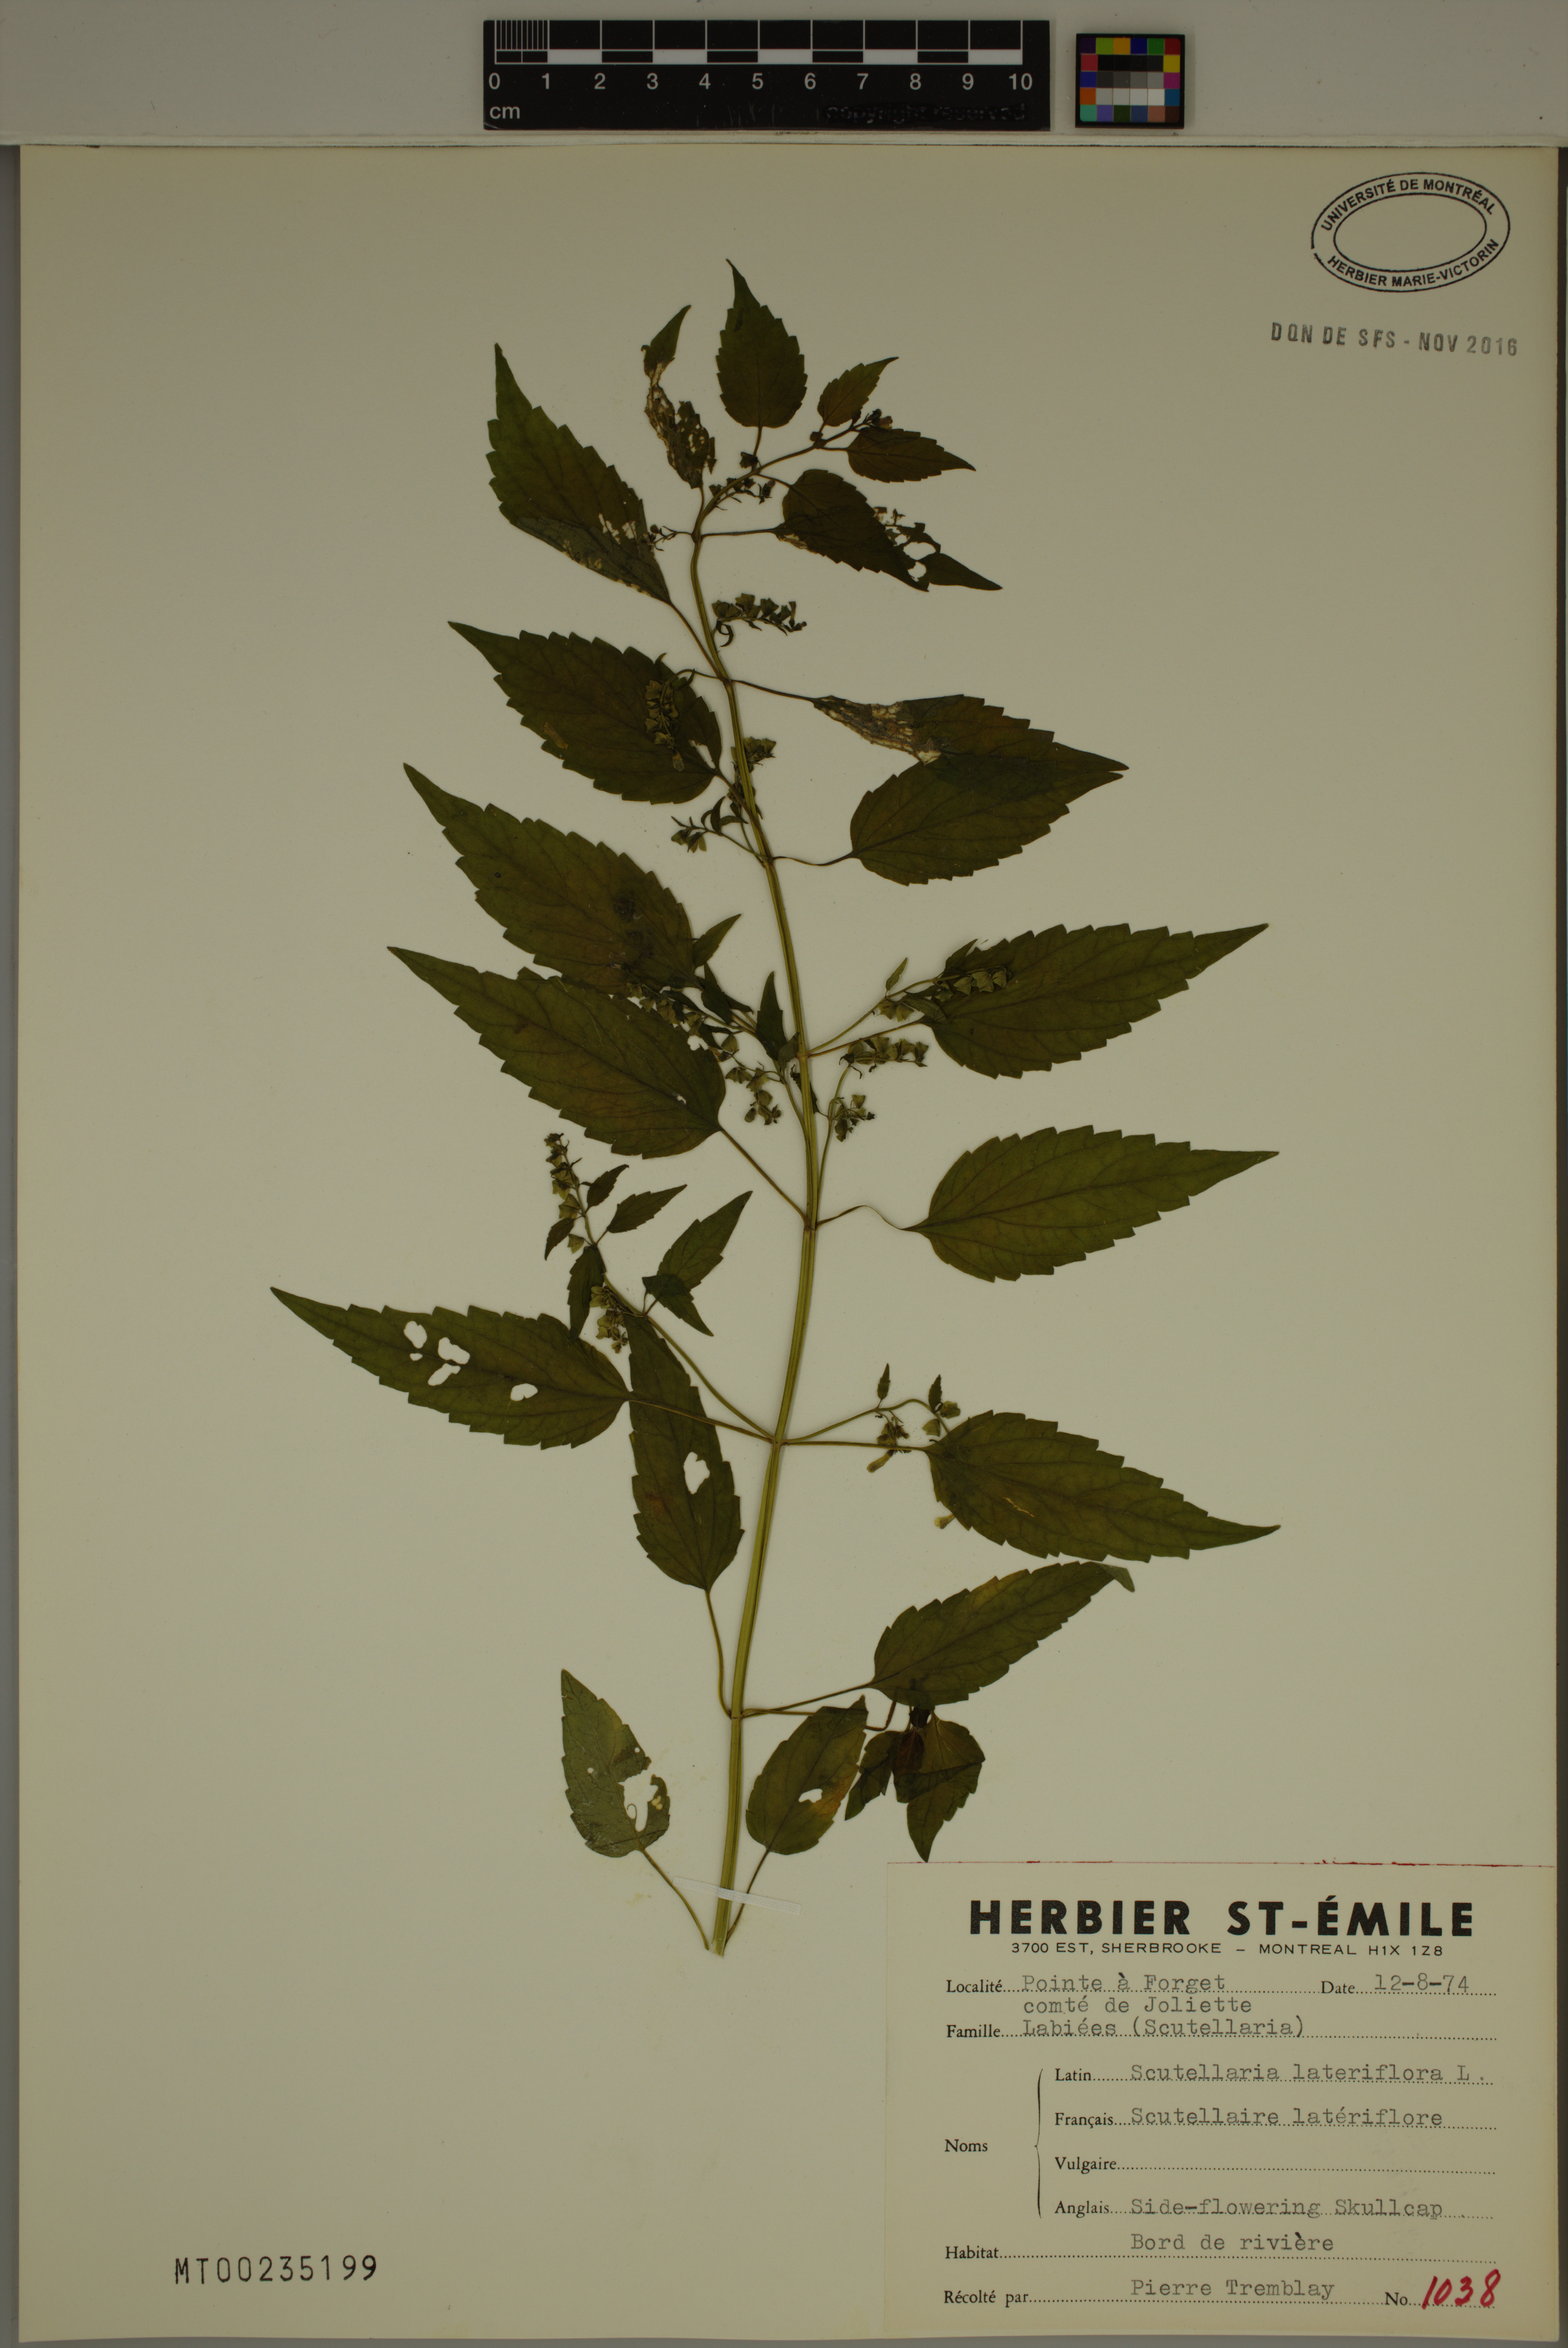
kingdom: Plantae
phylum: Tracheophyta
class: Magnoliopsida
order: Lamiales
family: Lamiaceae
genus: Scutellaria
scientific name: Scutellaria lateriflora
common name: Blue skullcap
